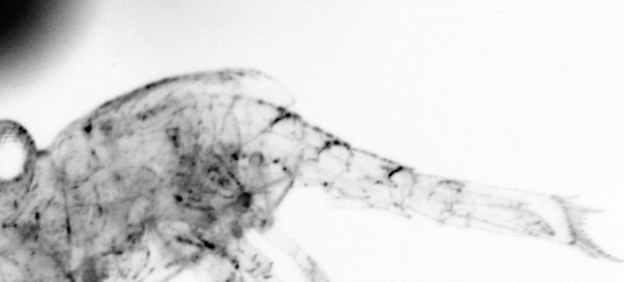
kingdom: Animalia
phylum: Chordata
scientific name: Chordata
